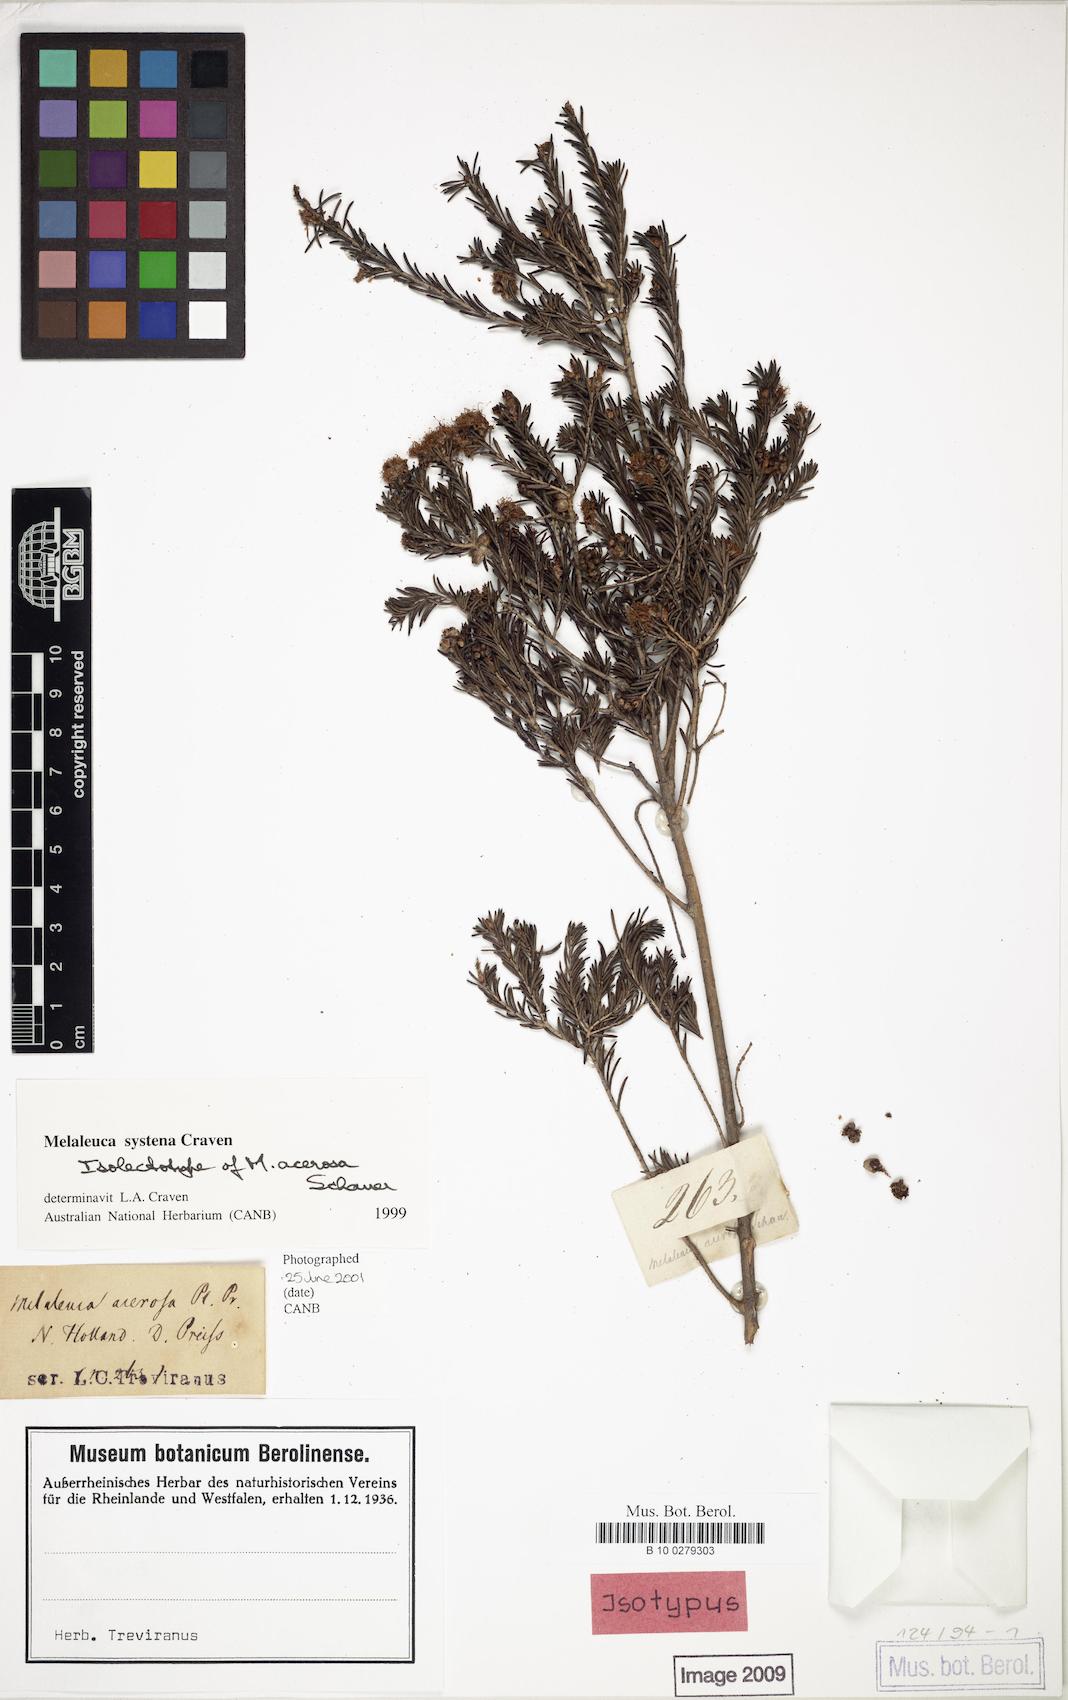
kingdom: Plantae
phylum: Tracheophyta
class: Magnoliopsida
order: Myrtales
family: Myrtaceae
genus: Melaleuca
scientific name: Melaleuca systena
